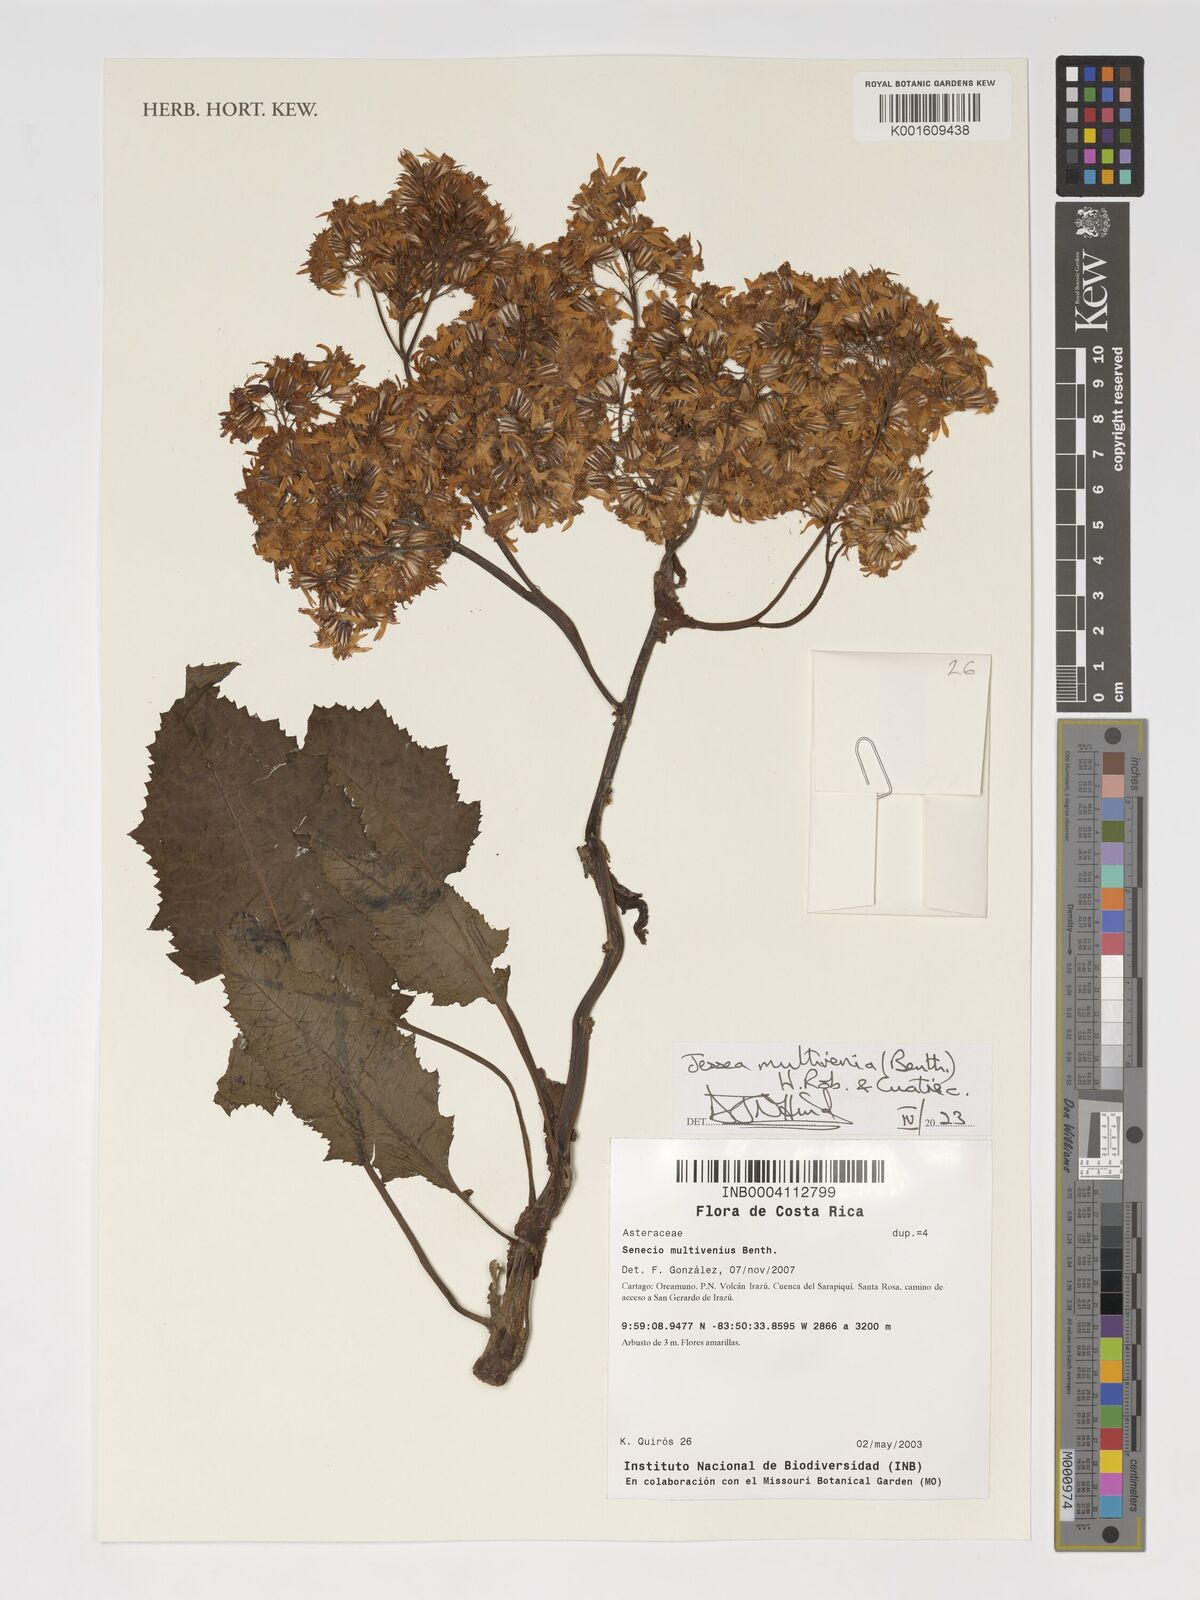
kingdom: Plantae
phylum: Tracheophyta
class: Magnoliopsida
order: Asterales
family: Asteraceae
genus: Jessea
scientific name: Jessea multivenia
